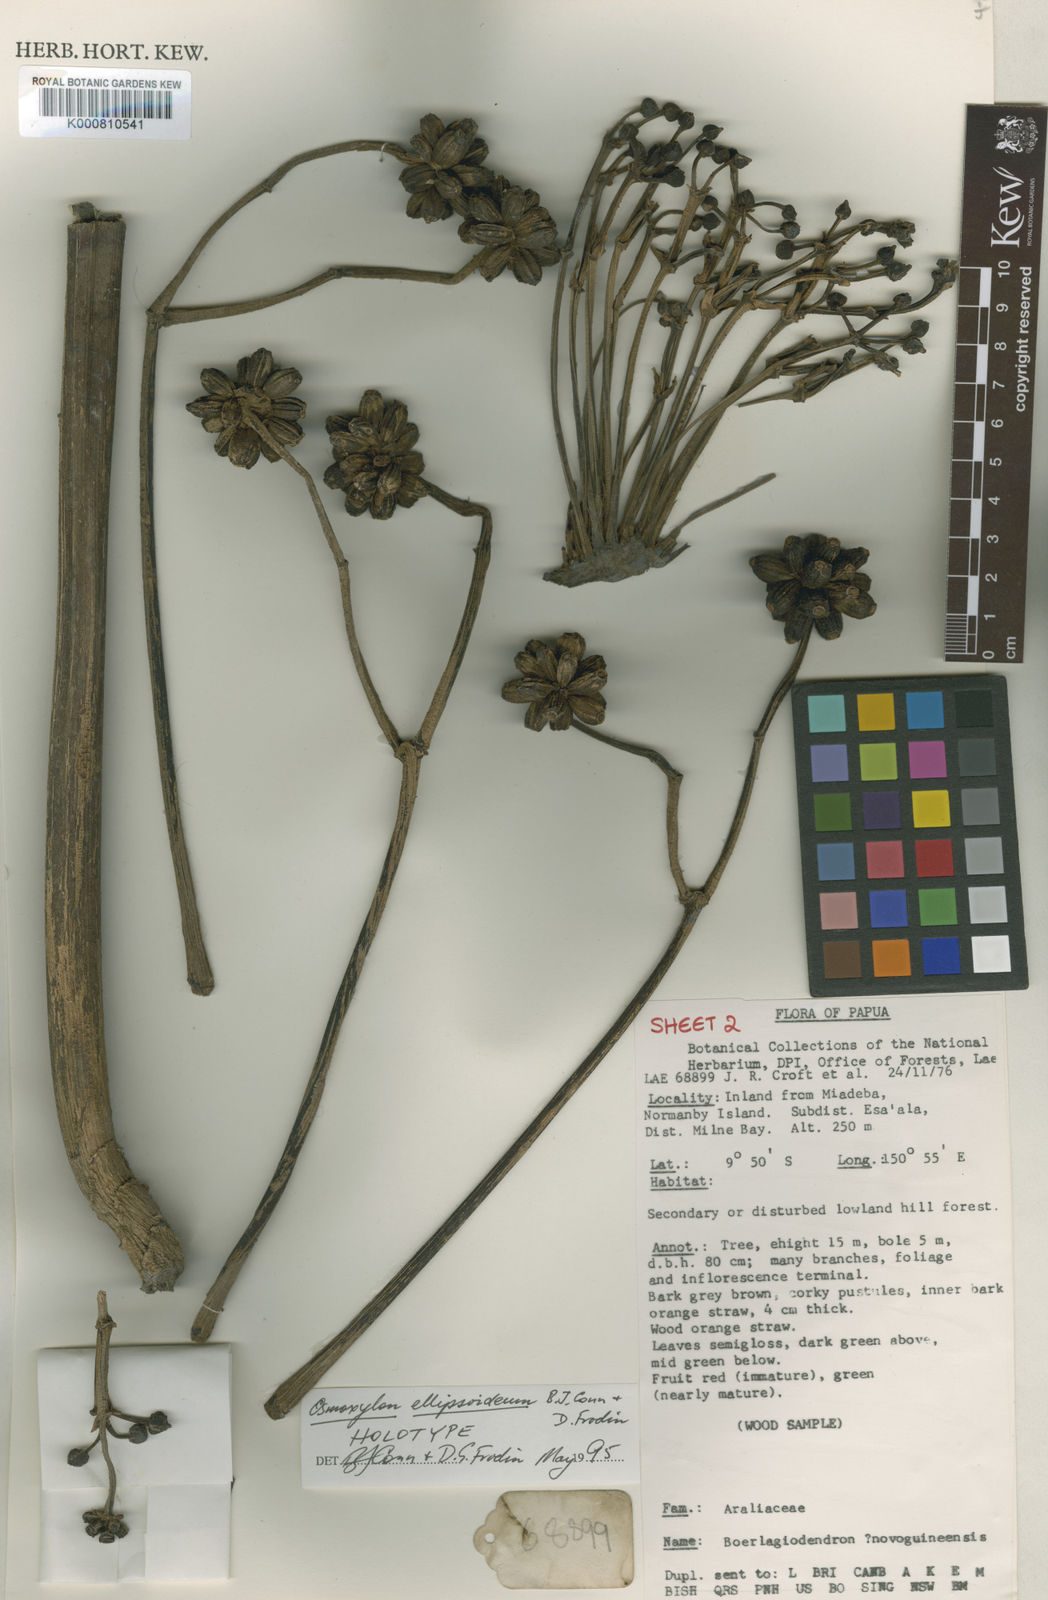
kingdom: Plantae
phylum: Tracheophyta
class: Magnoliopsida
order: Apiales
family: Araliaceae
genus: Osmoxylon
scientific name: Osmoxylon ellipsoideum
